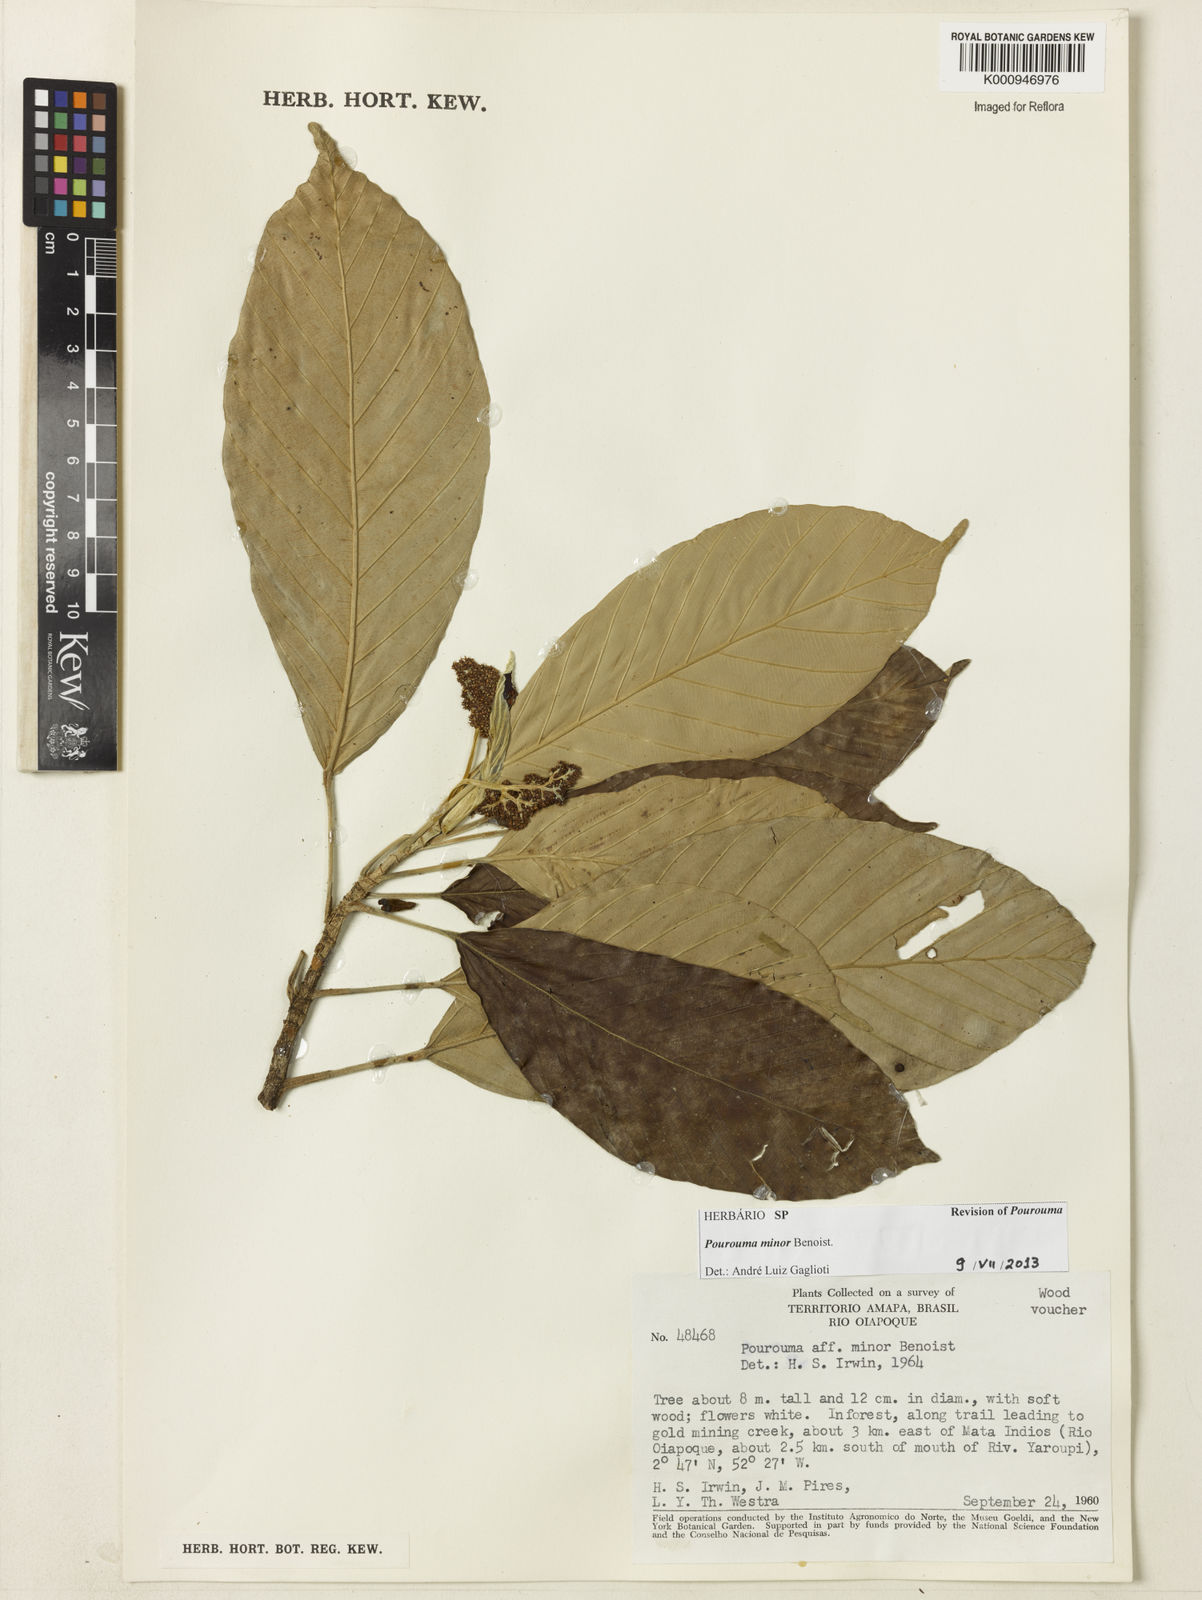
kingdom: Plantae
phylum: Tracheophyta
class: Magnoliopsida
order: Rosales
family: Urticaceae
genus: Pourouma
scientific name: Pourouma minor
